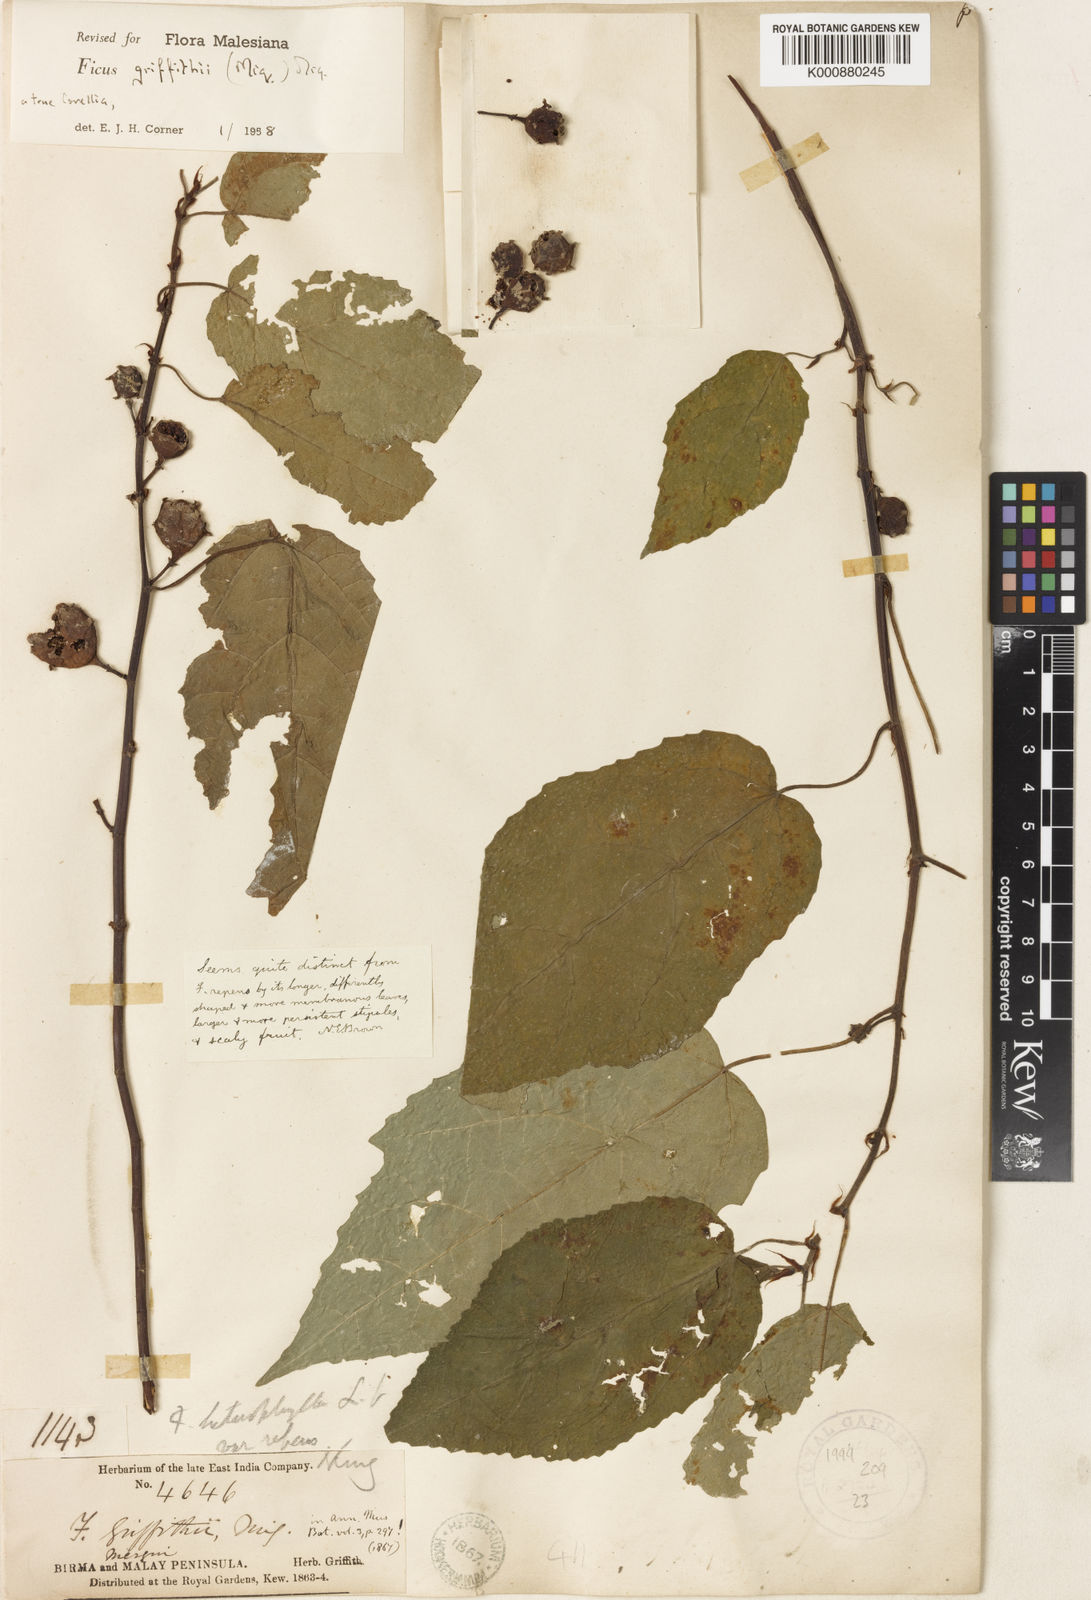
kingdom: Plantae
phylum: Tracheophyta
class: Magnoliopsida
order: Rosales
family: Moraceae
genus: Ficus
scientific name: Ficus griffithii
